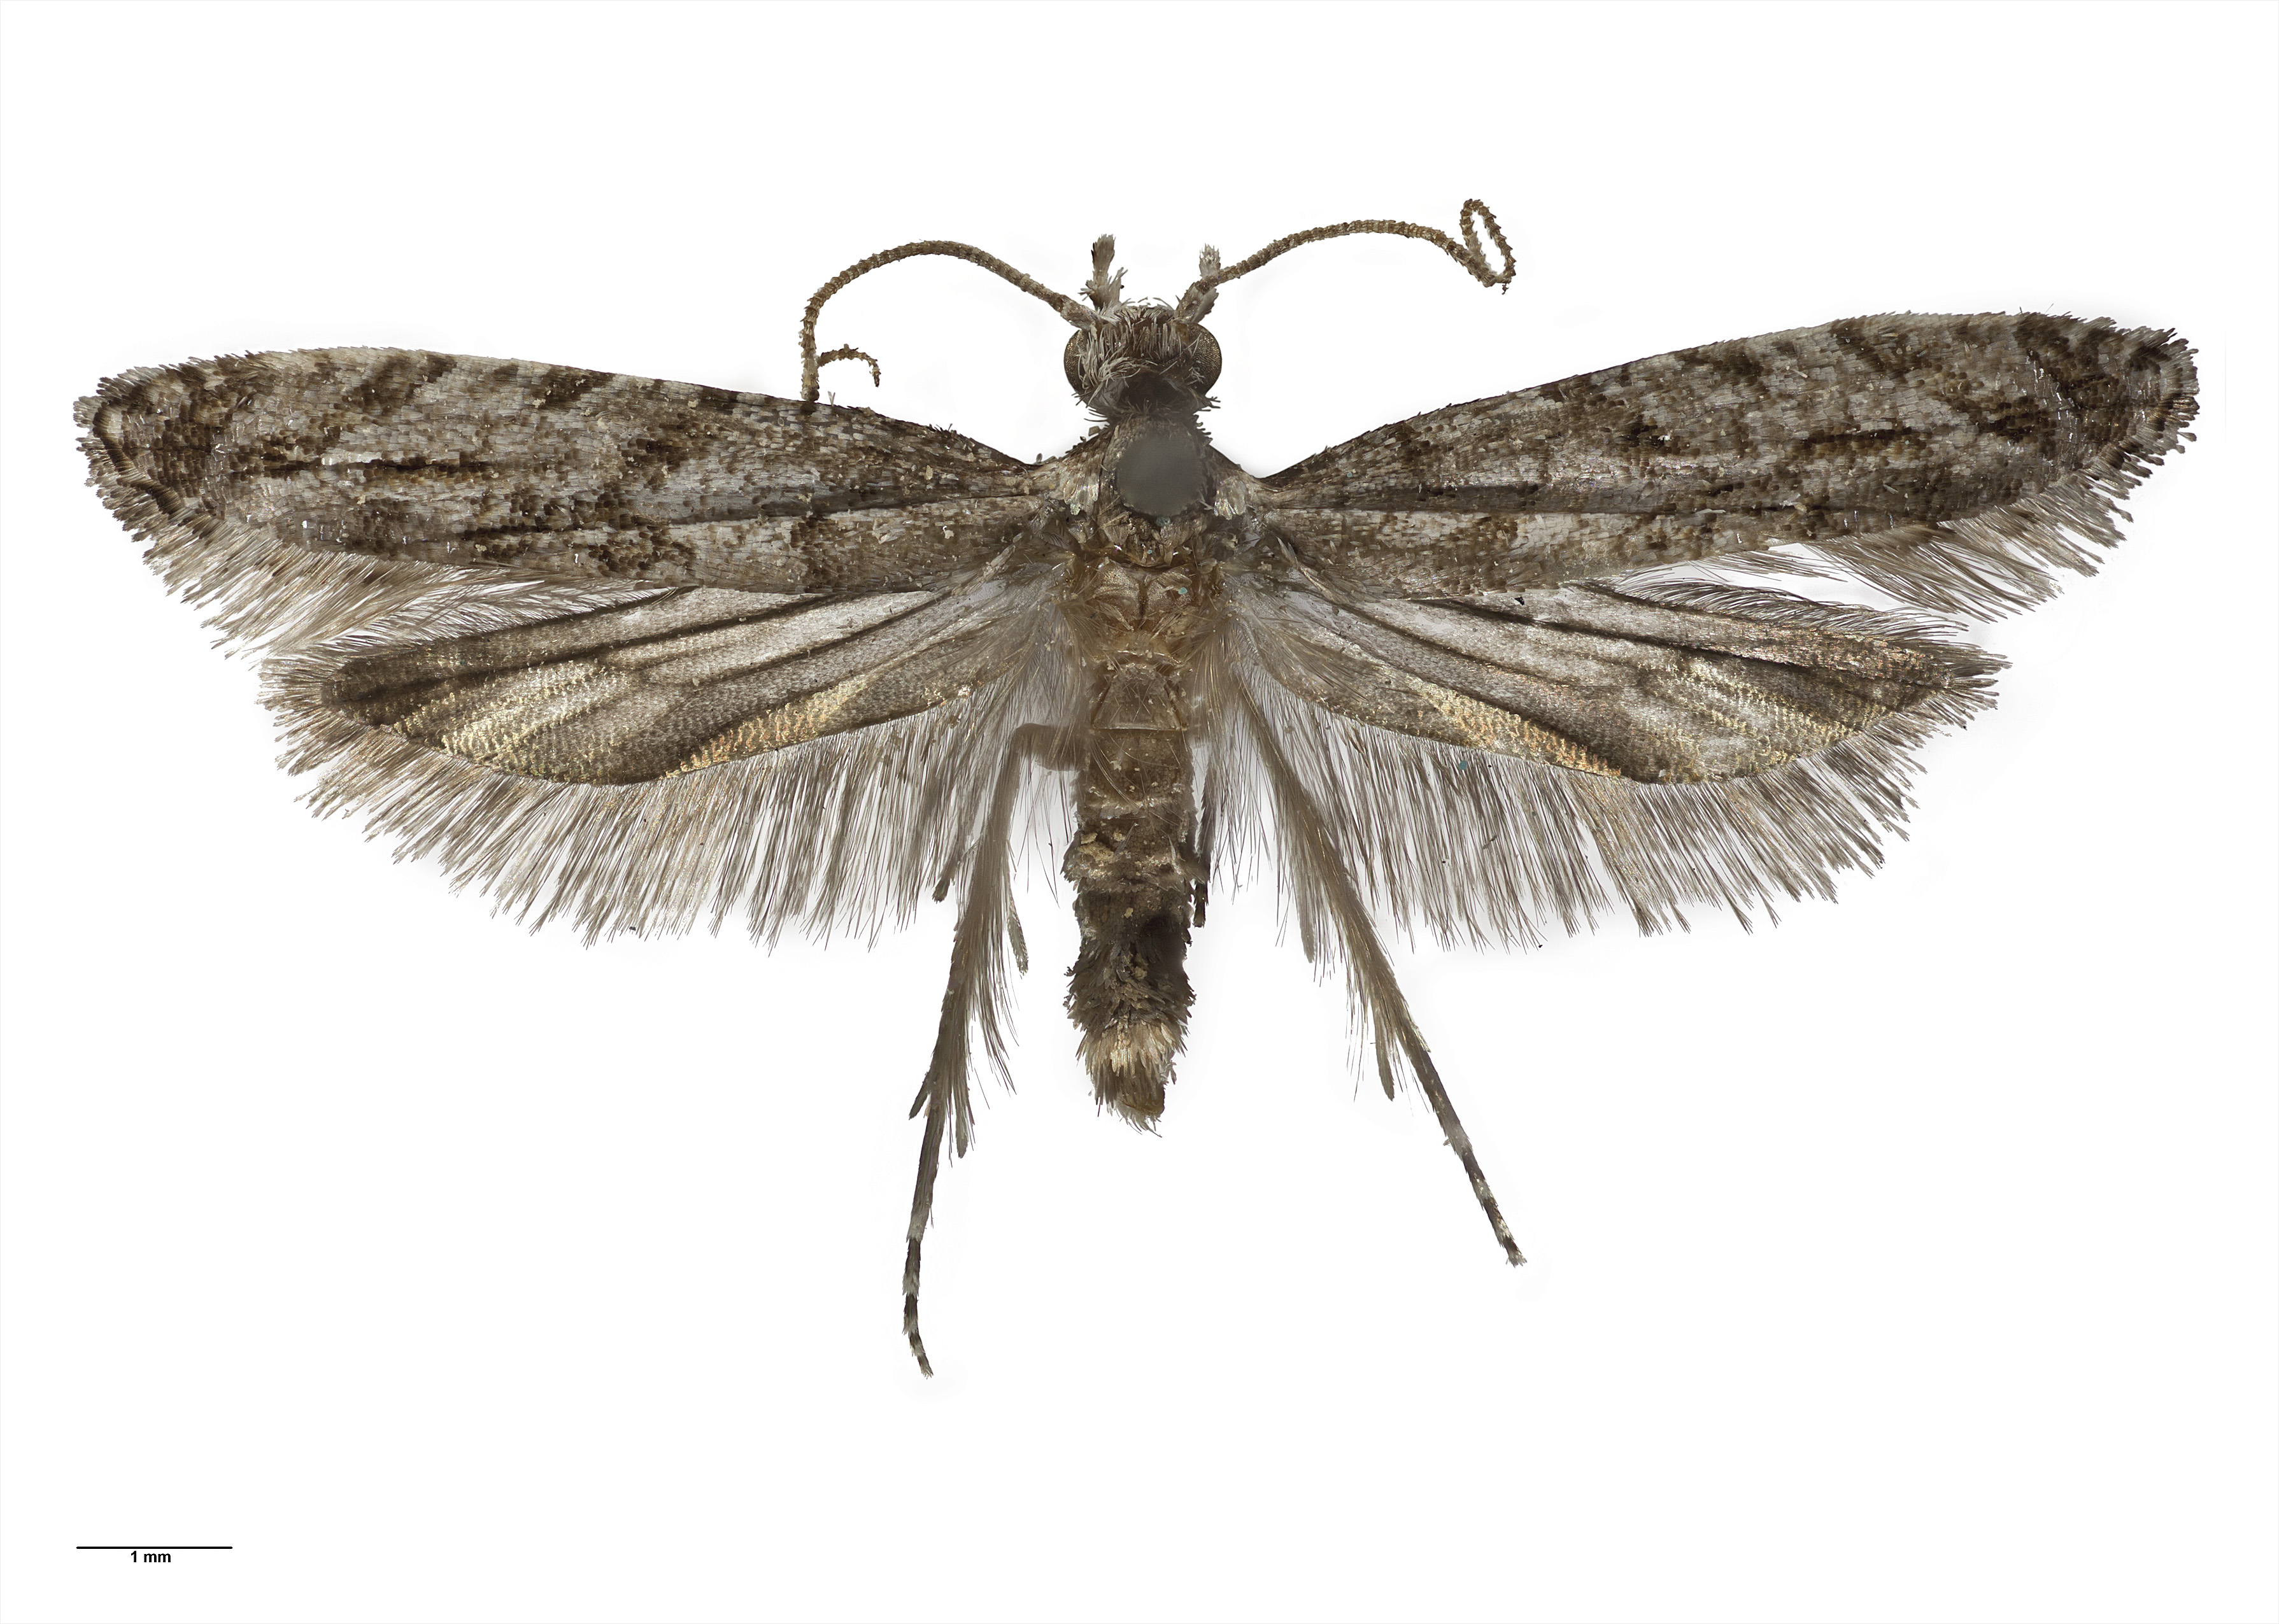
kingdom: Animalia
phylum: Arthropoda
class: Insecta
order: Lepidoptera
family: Tineidae
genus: Archyala
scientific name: Archyala paraglypta
